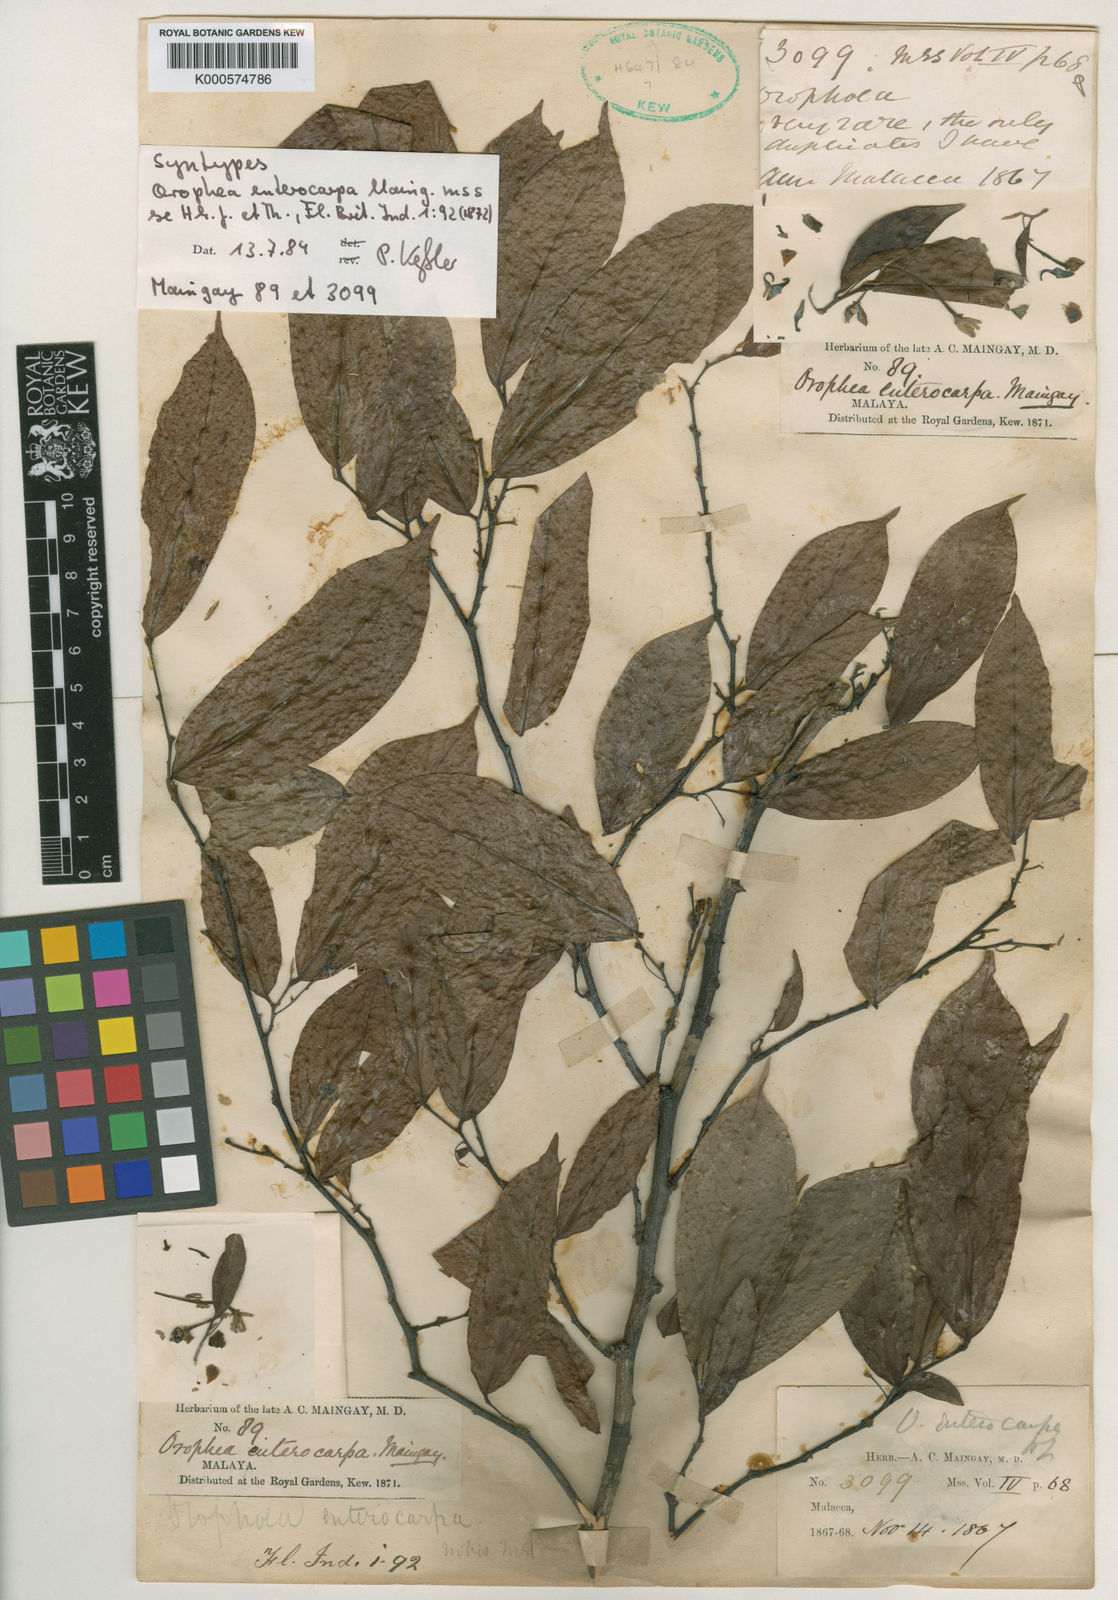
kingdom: Plantae
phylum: Tracheophyta
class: Magnoliopsida
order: Magnoliales
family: Annonaceae
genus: Orophea
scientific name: Orophea enterocarpa
